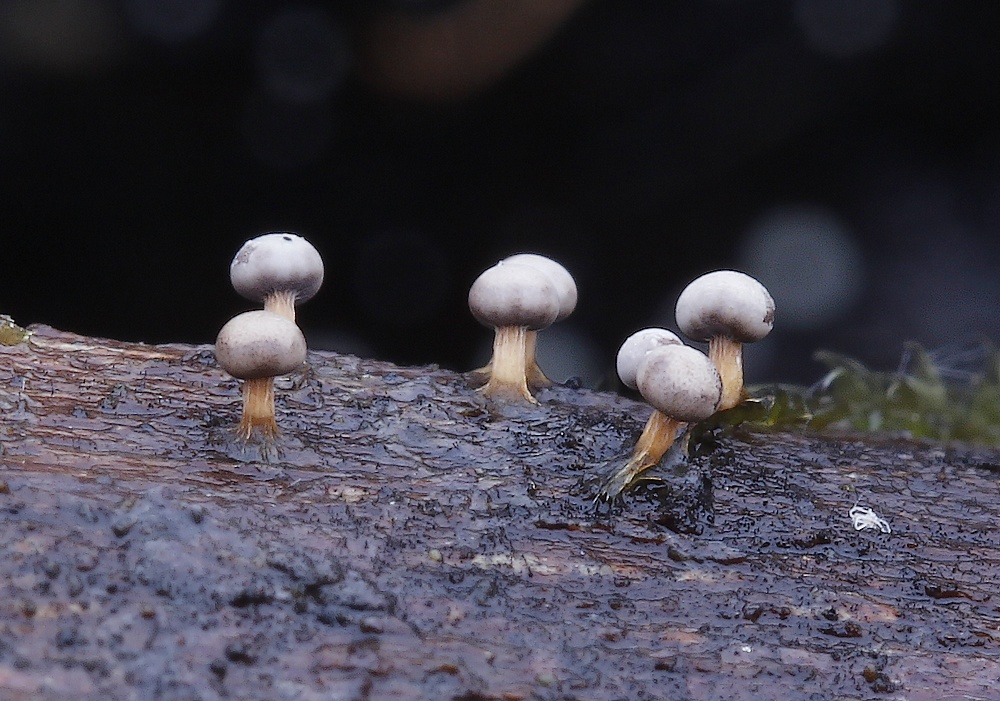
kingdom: Protozoa
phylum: Mycetozoa
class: Myxomycetes
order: Physarales
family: Didymiaceae
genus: Diderma
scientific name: Diderma montanum
